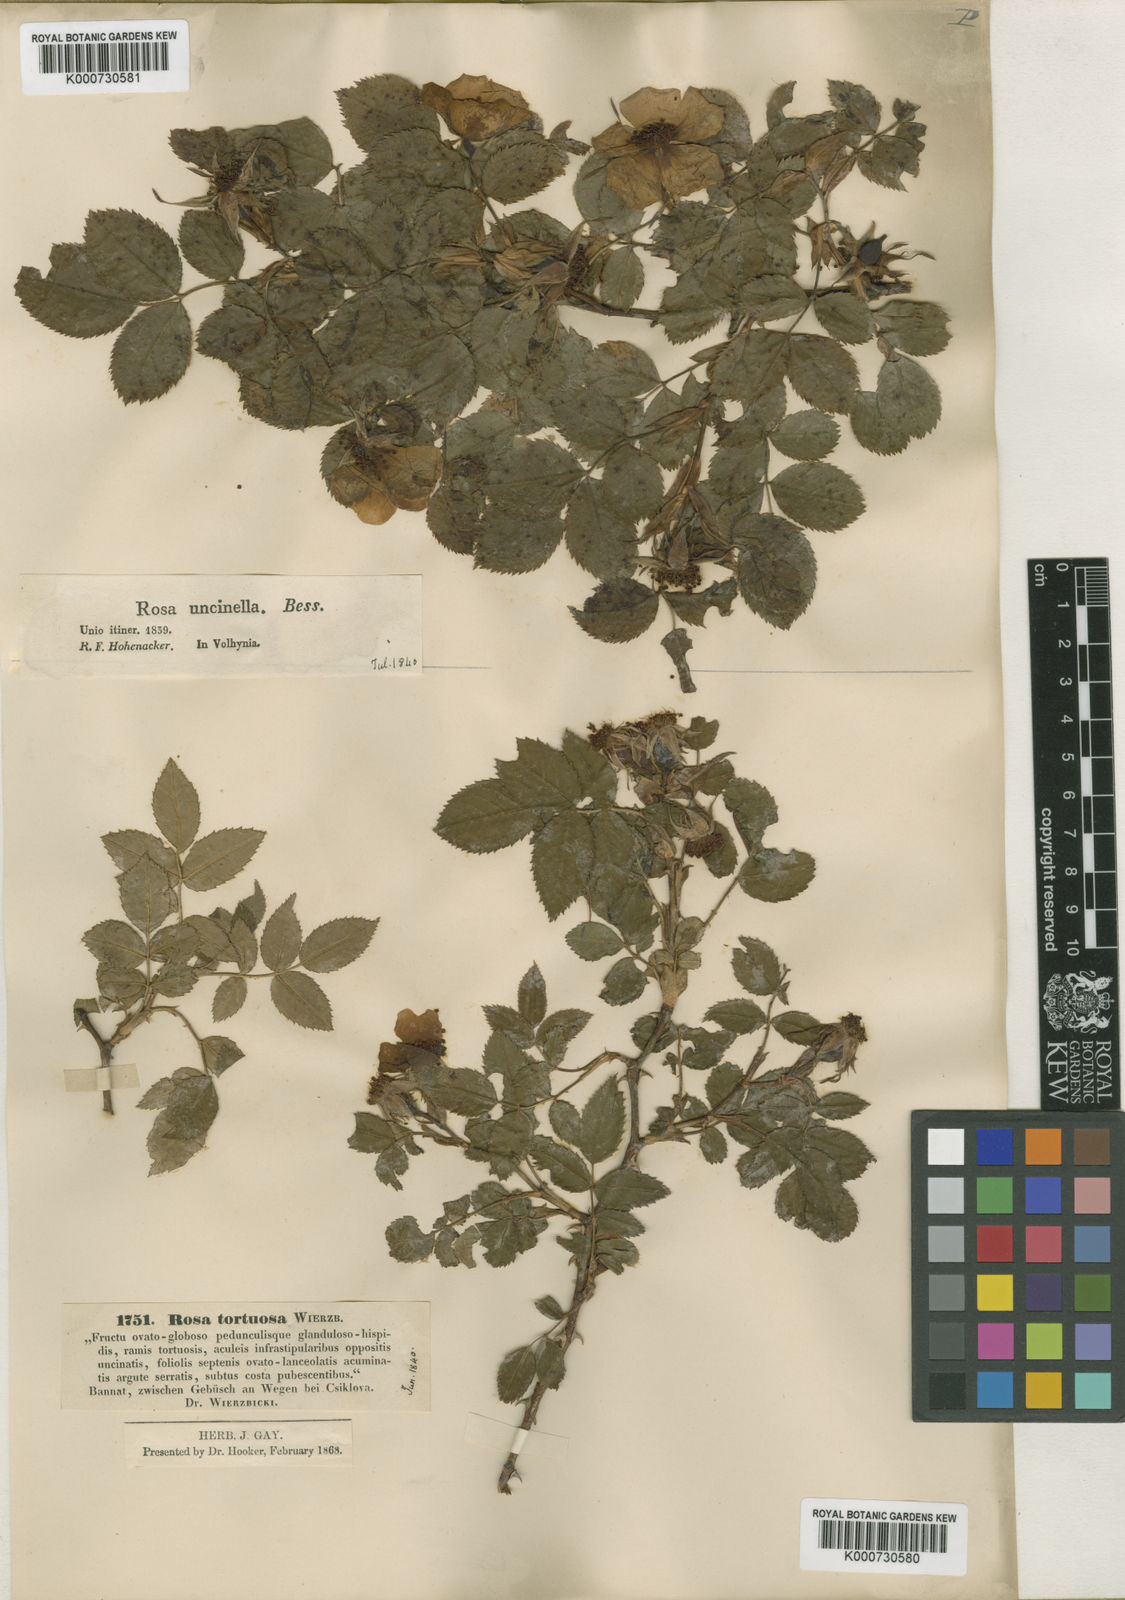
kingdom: Plantae
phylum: Tracheophyta
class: Magnoliopsida
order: Rosales
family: Rosaceae
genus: Rosa
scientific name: Rosa
